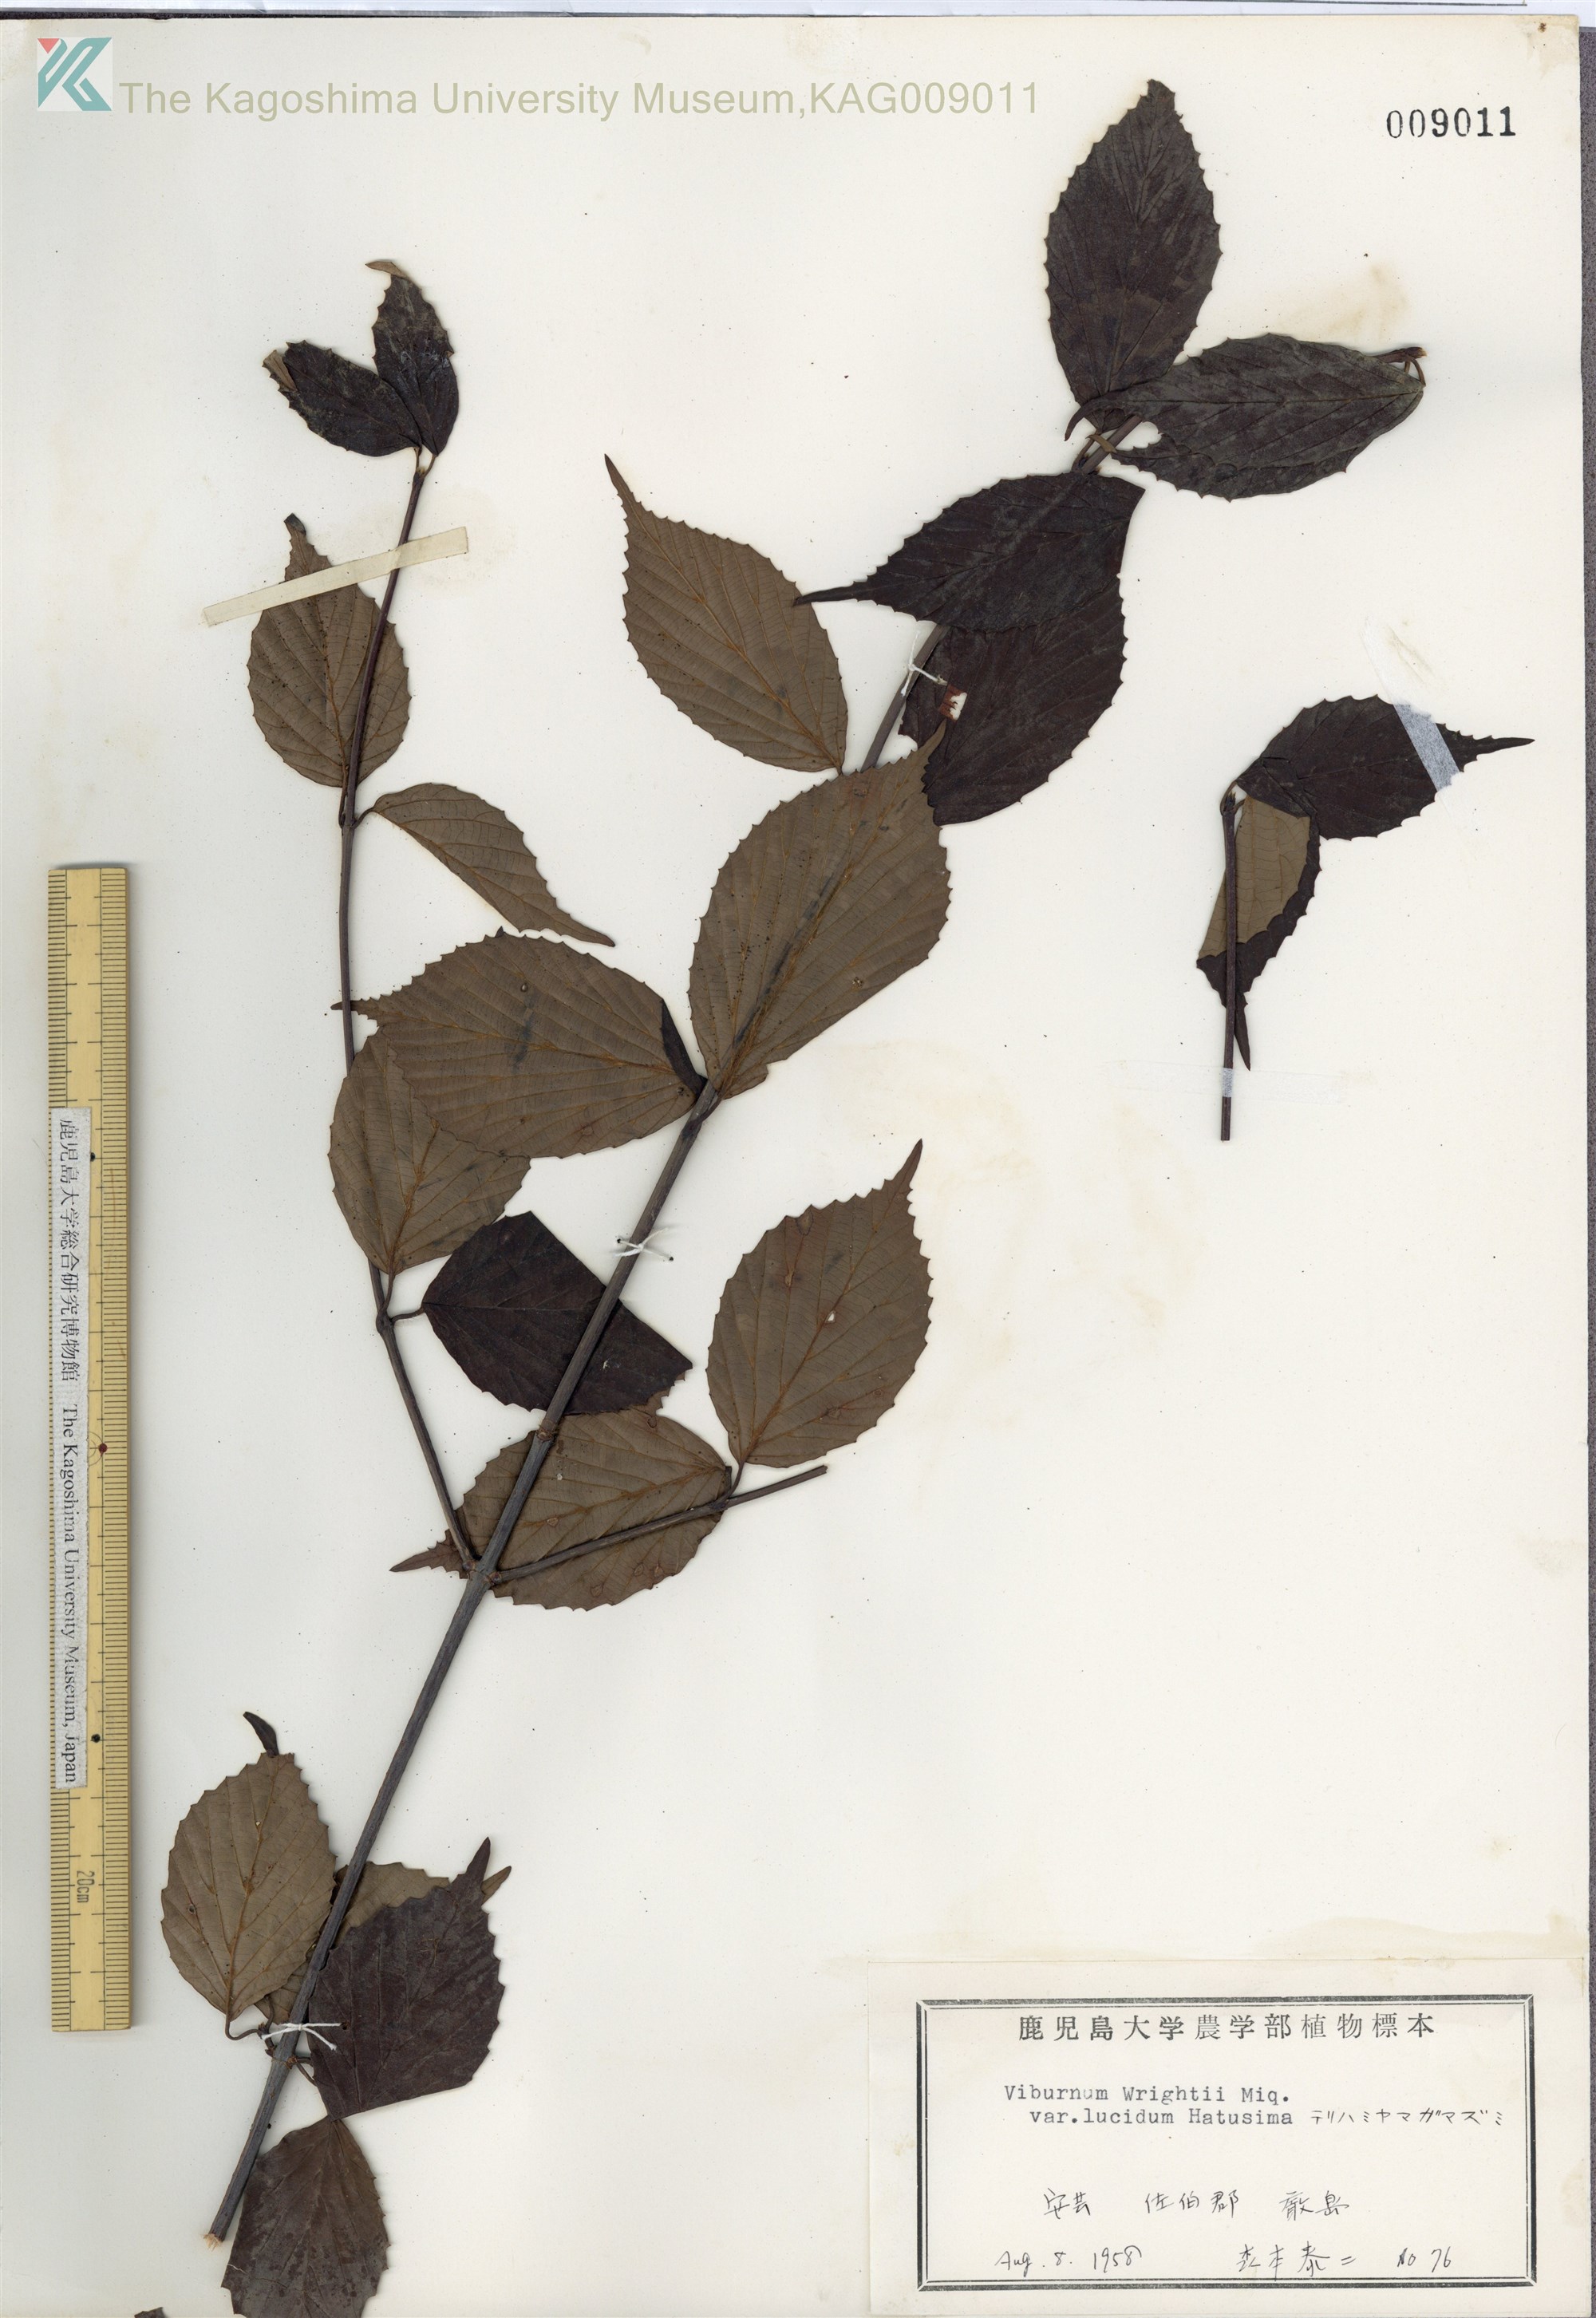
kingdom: Plantae
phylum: Tracheophyta
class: Magnoliopsida
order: Dipsacales
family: Viburnaceae
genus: Viburnum
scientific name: Viburnum wrightii
